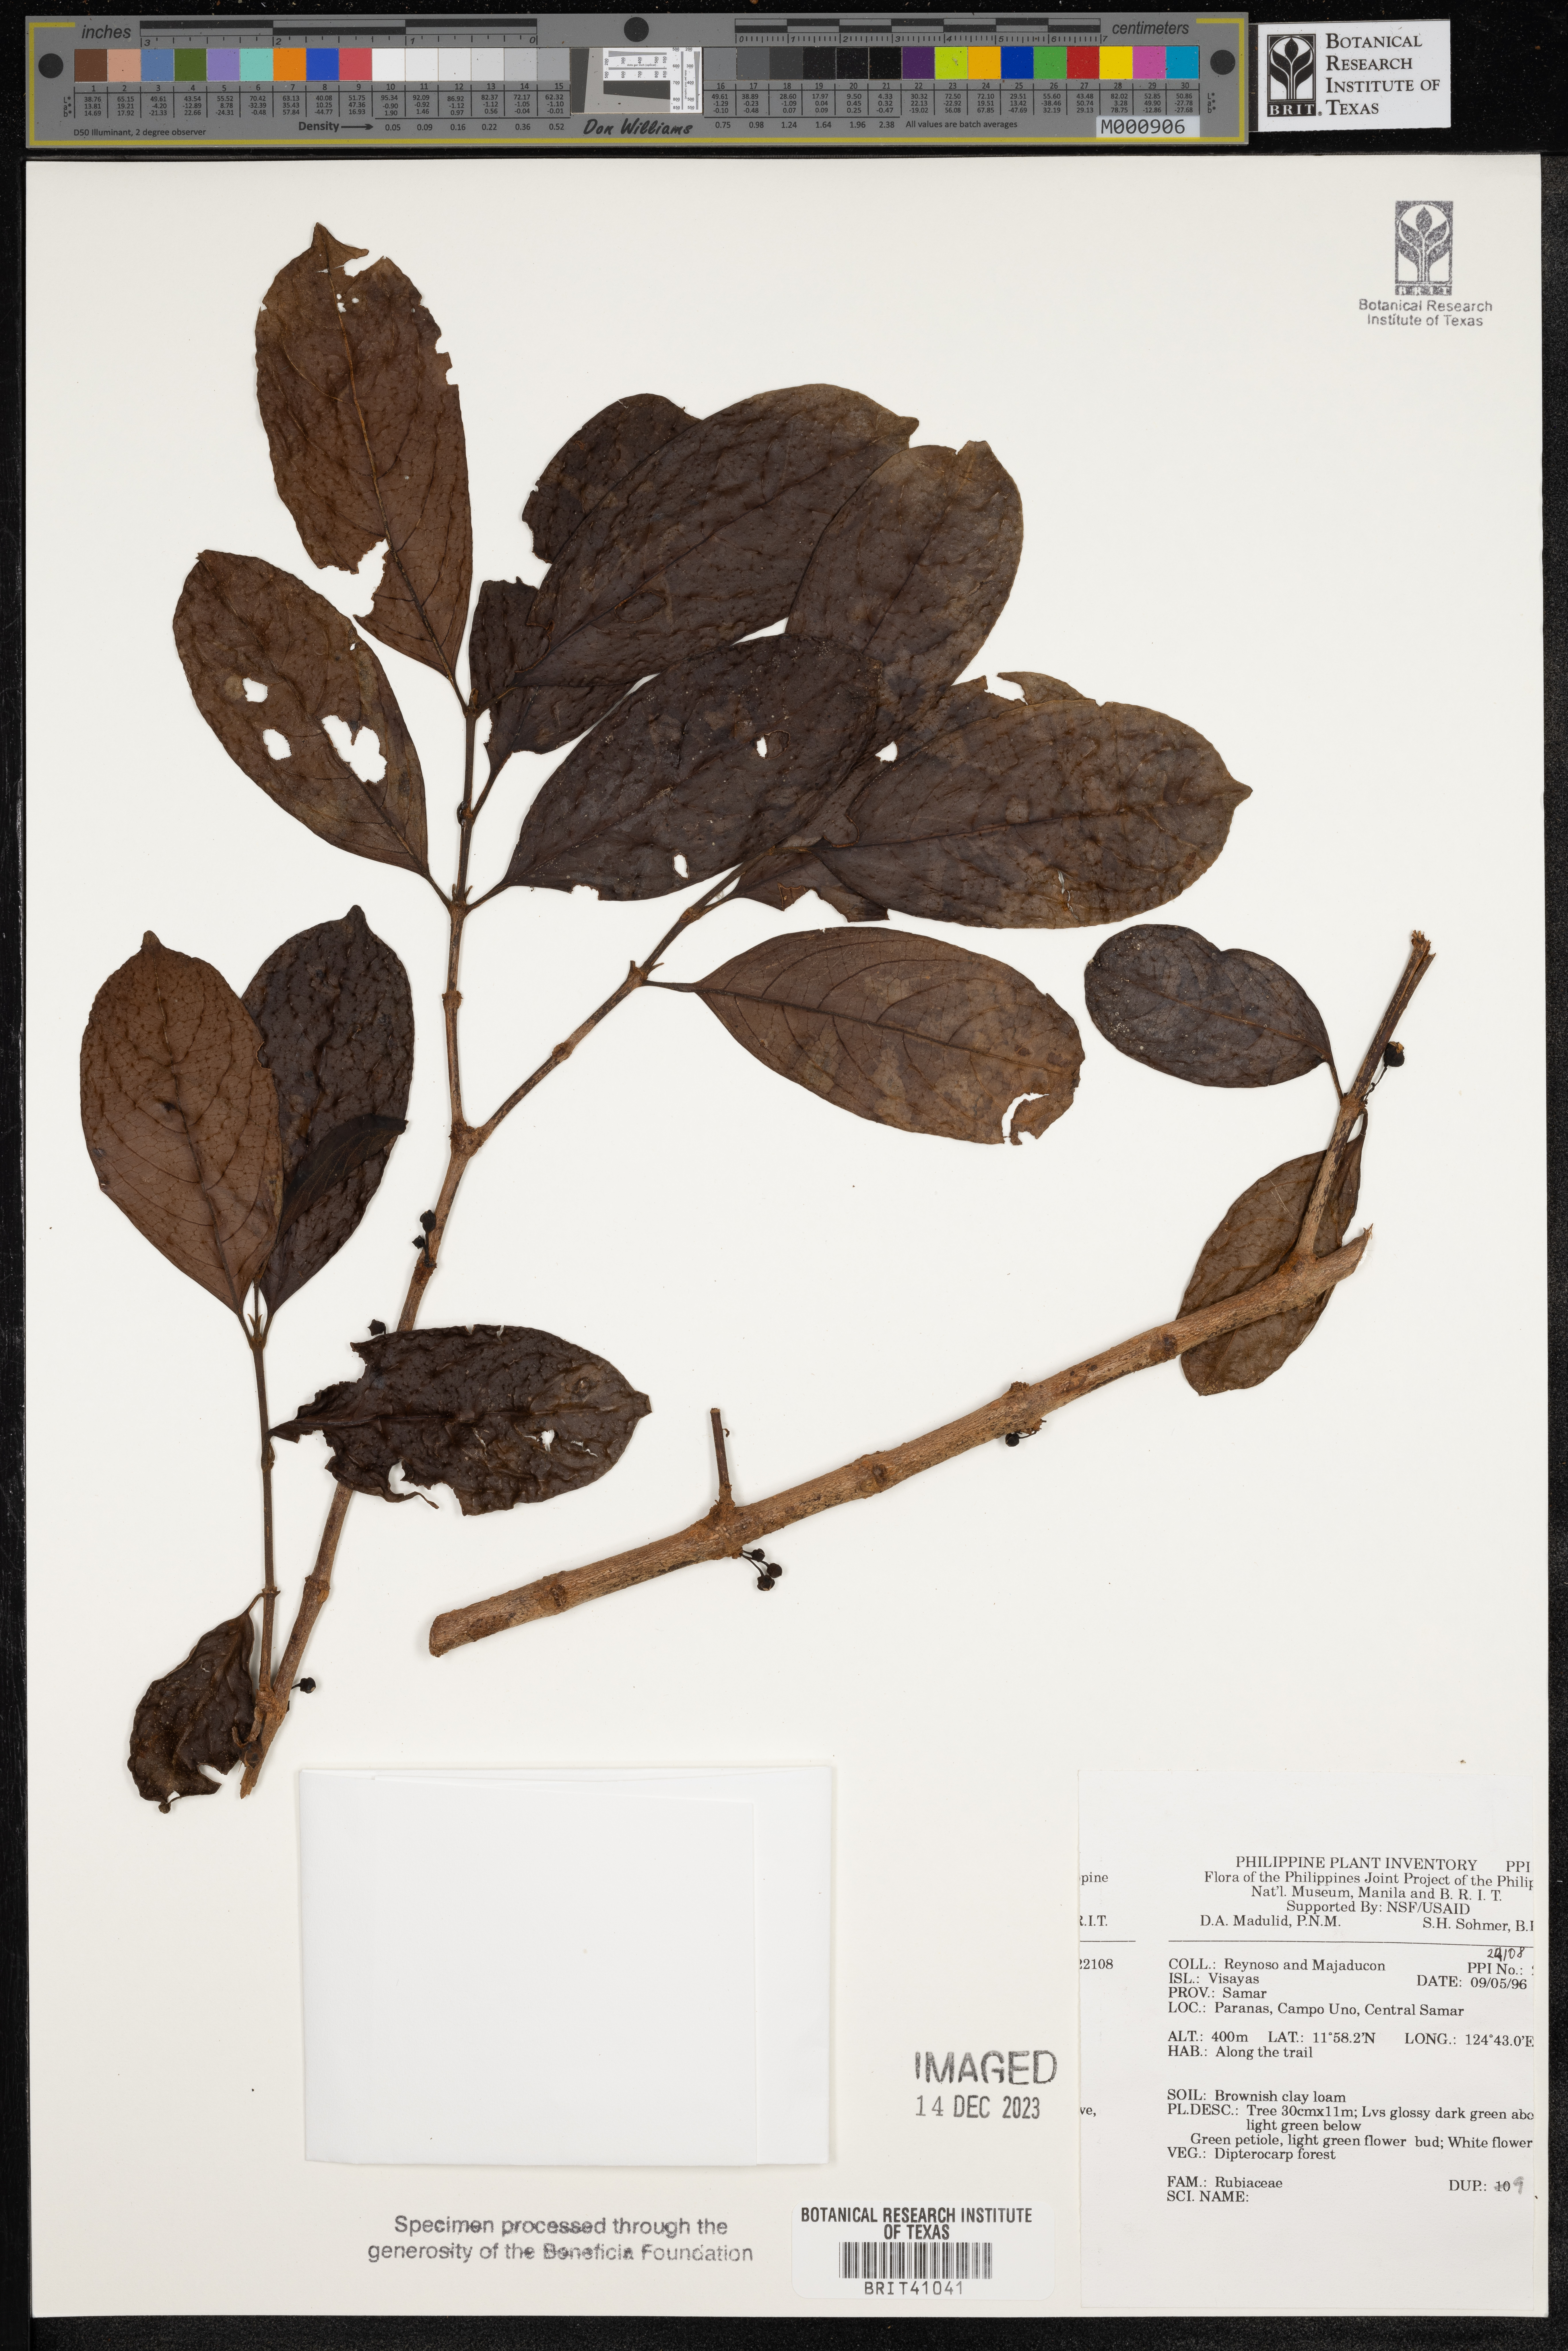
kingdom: Plantae
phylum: Tracheophyta
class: Magnoliopsida
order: Gentianales
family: Rubiaceae
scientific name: Rubiaceae
